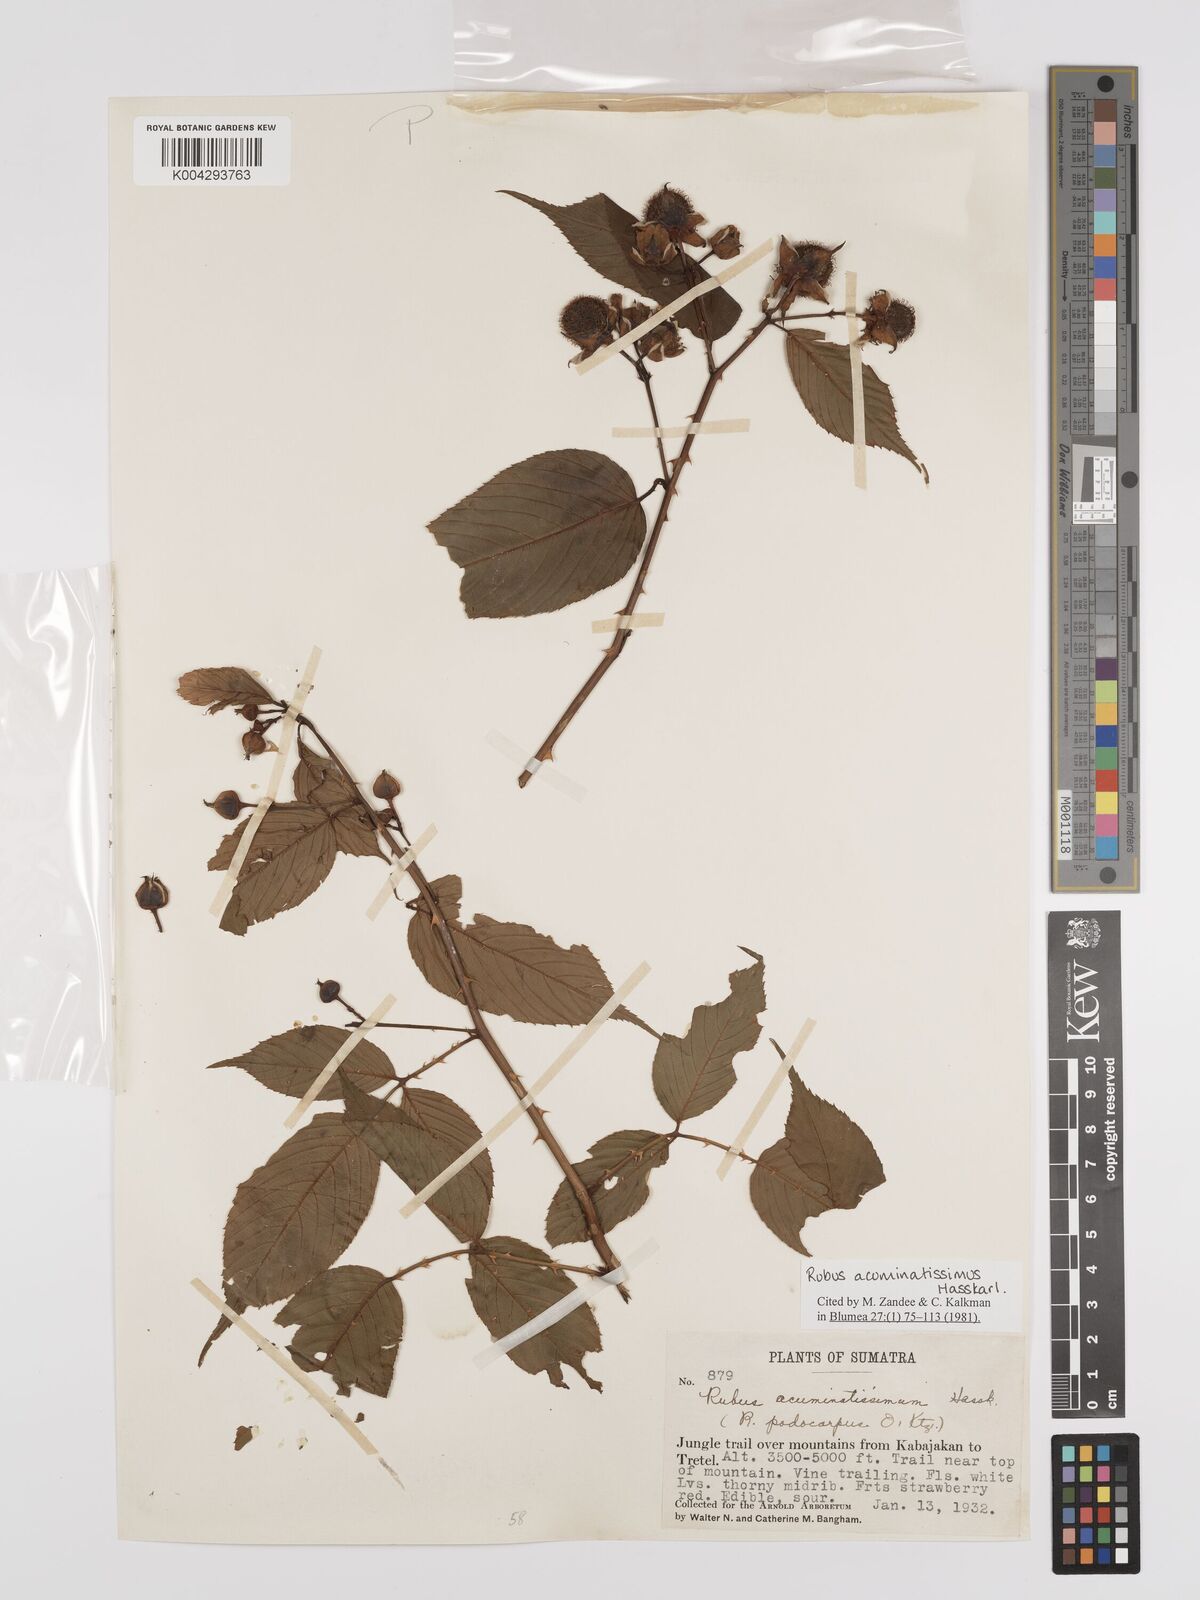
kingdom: Plantae
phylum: Tracheophyta
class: Magnoliopsida
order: Rosales
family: Rosaceae
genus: Rubus
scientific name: Rubus acuminatissimus
